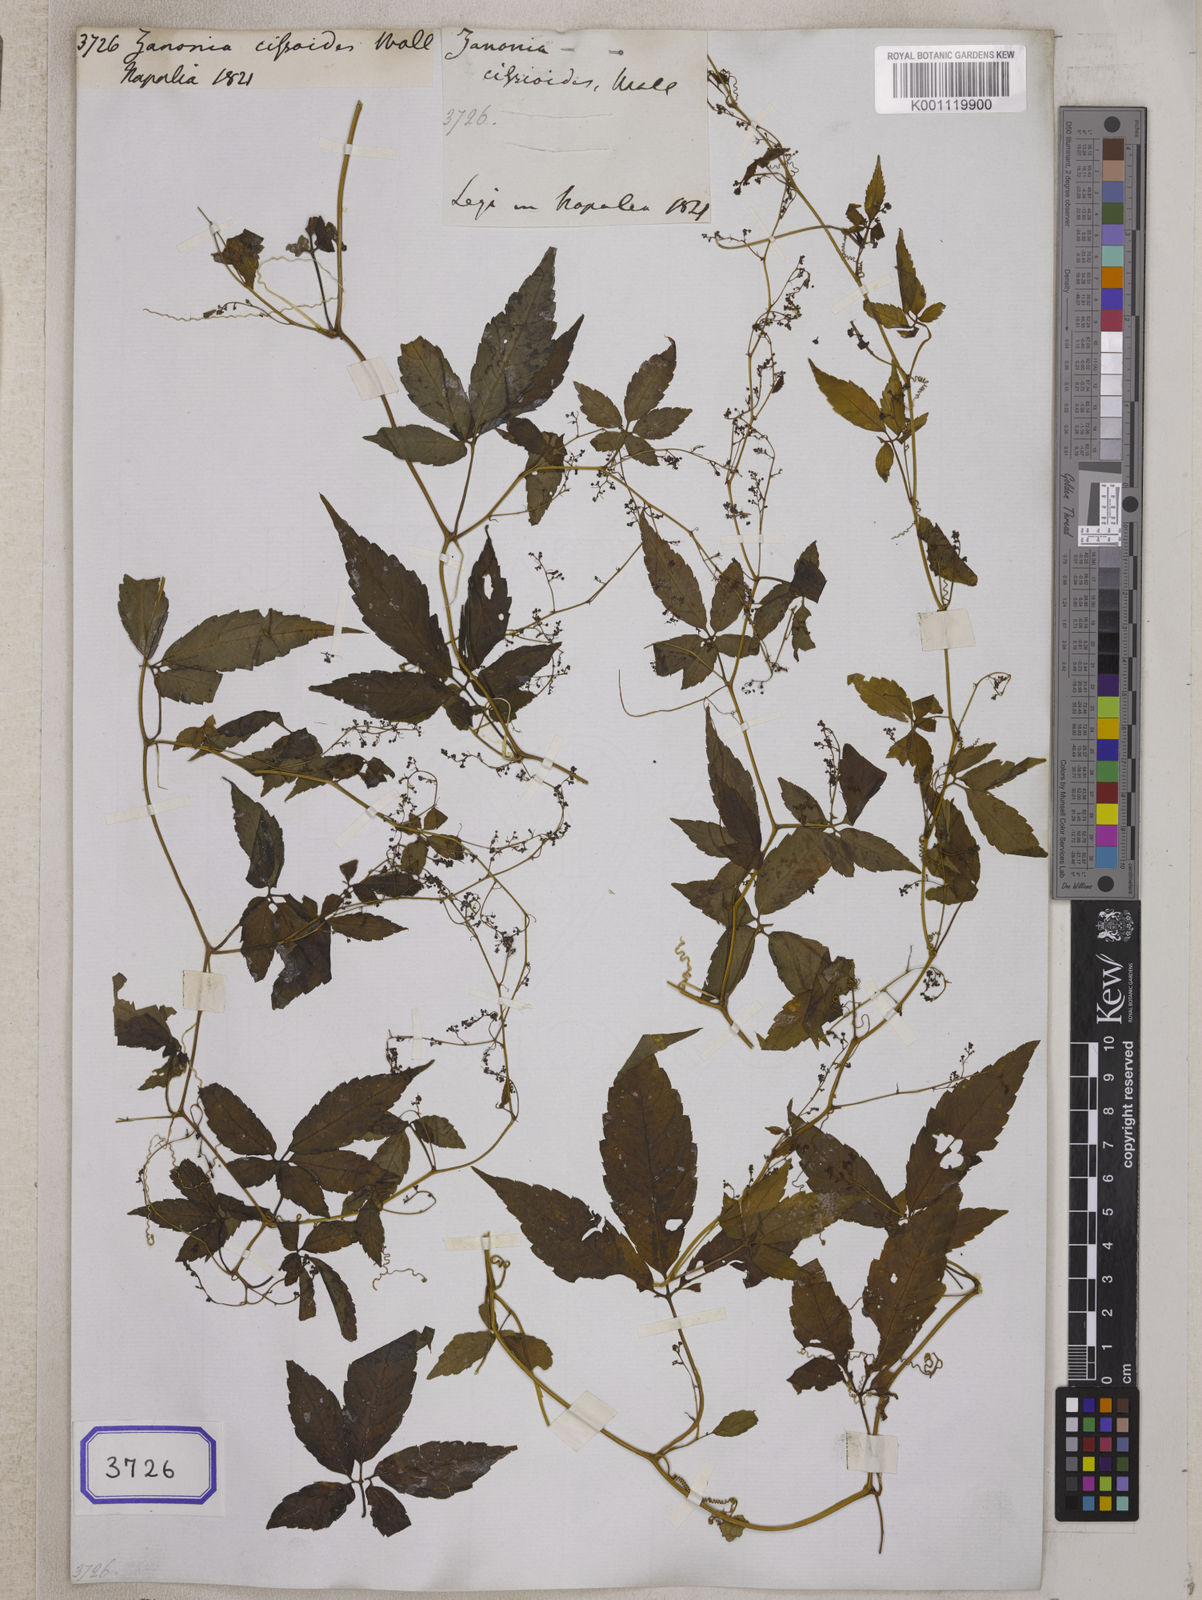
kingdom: Plantae
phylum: Tracheophyta
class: Magnoliopsida
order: Cucurbitales
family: Cucurbitaceae
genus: Gynostemma
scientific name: Gynostemma pentaphyllum
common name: Gynostemma
